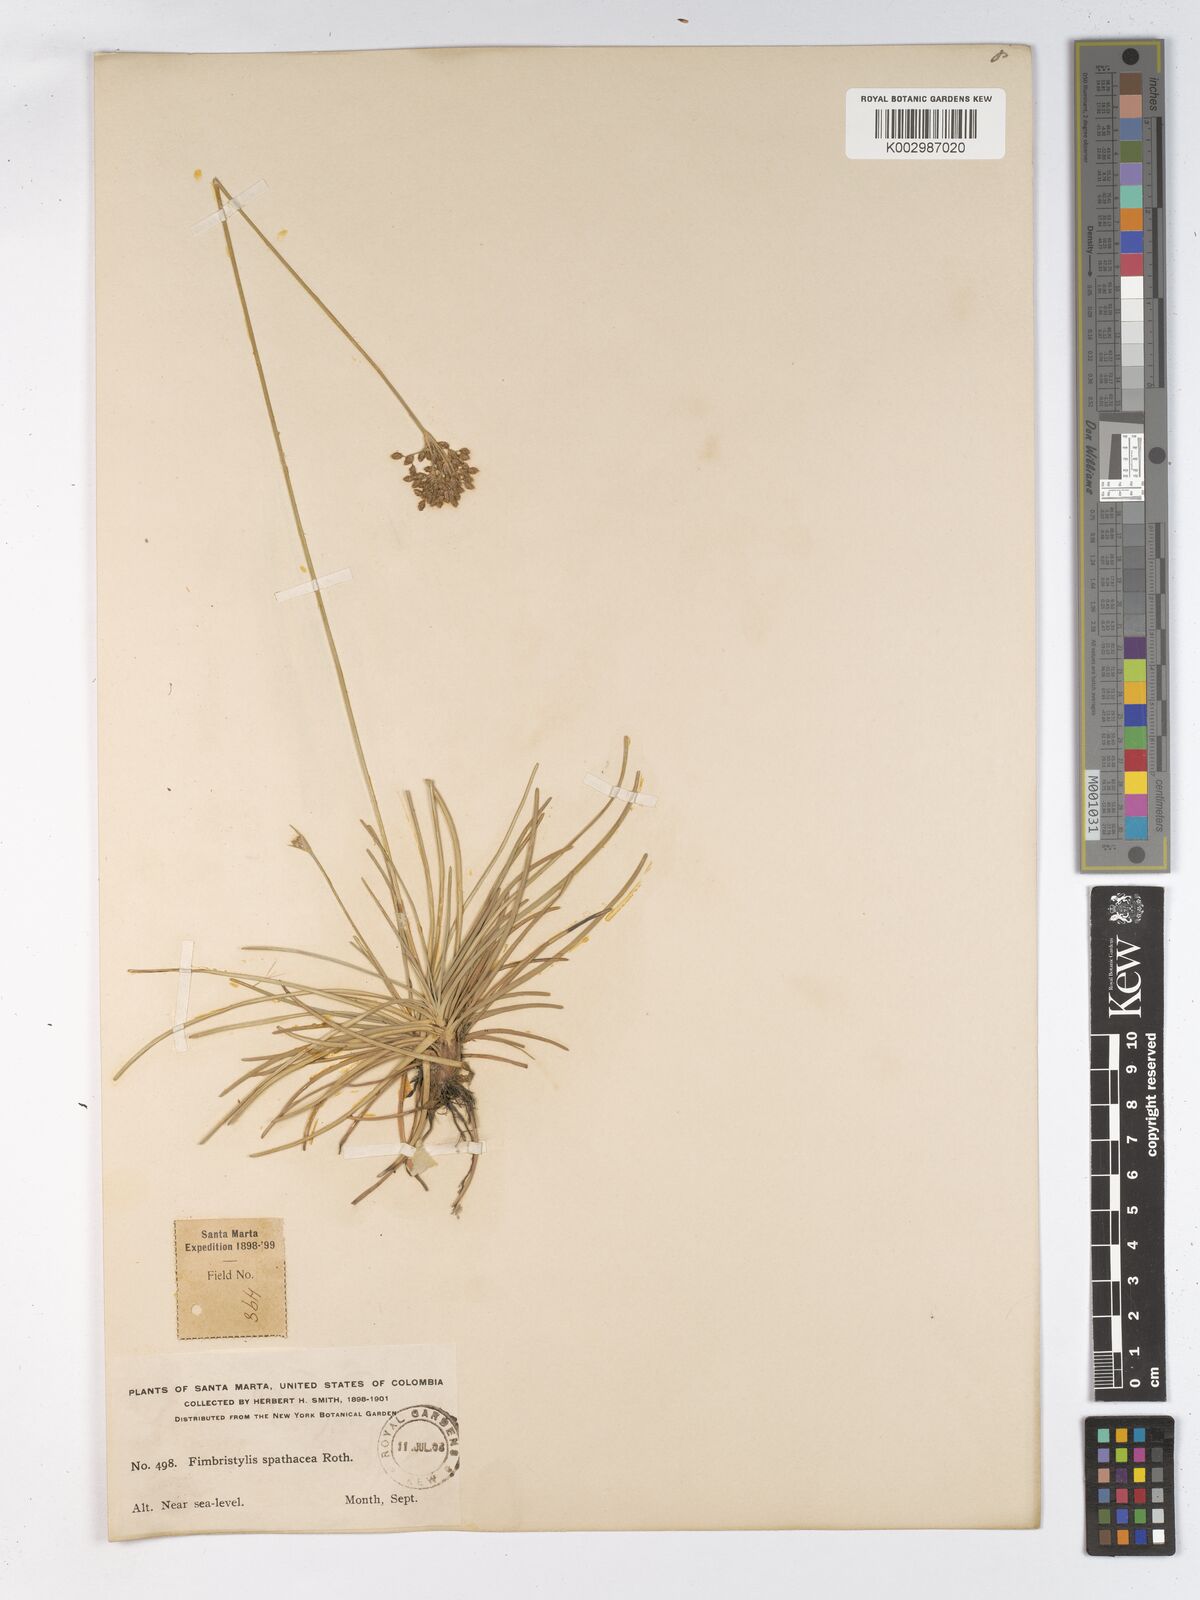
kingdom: Plantae
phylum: Tracheophyta
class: Liliopsida
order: Poales
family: Cyperaceae
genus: Fimbristylis
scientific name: Fimbristylis cymosa
